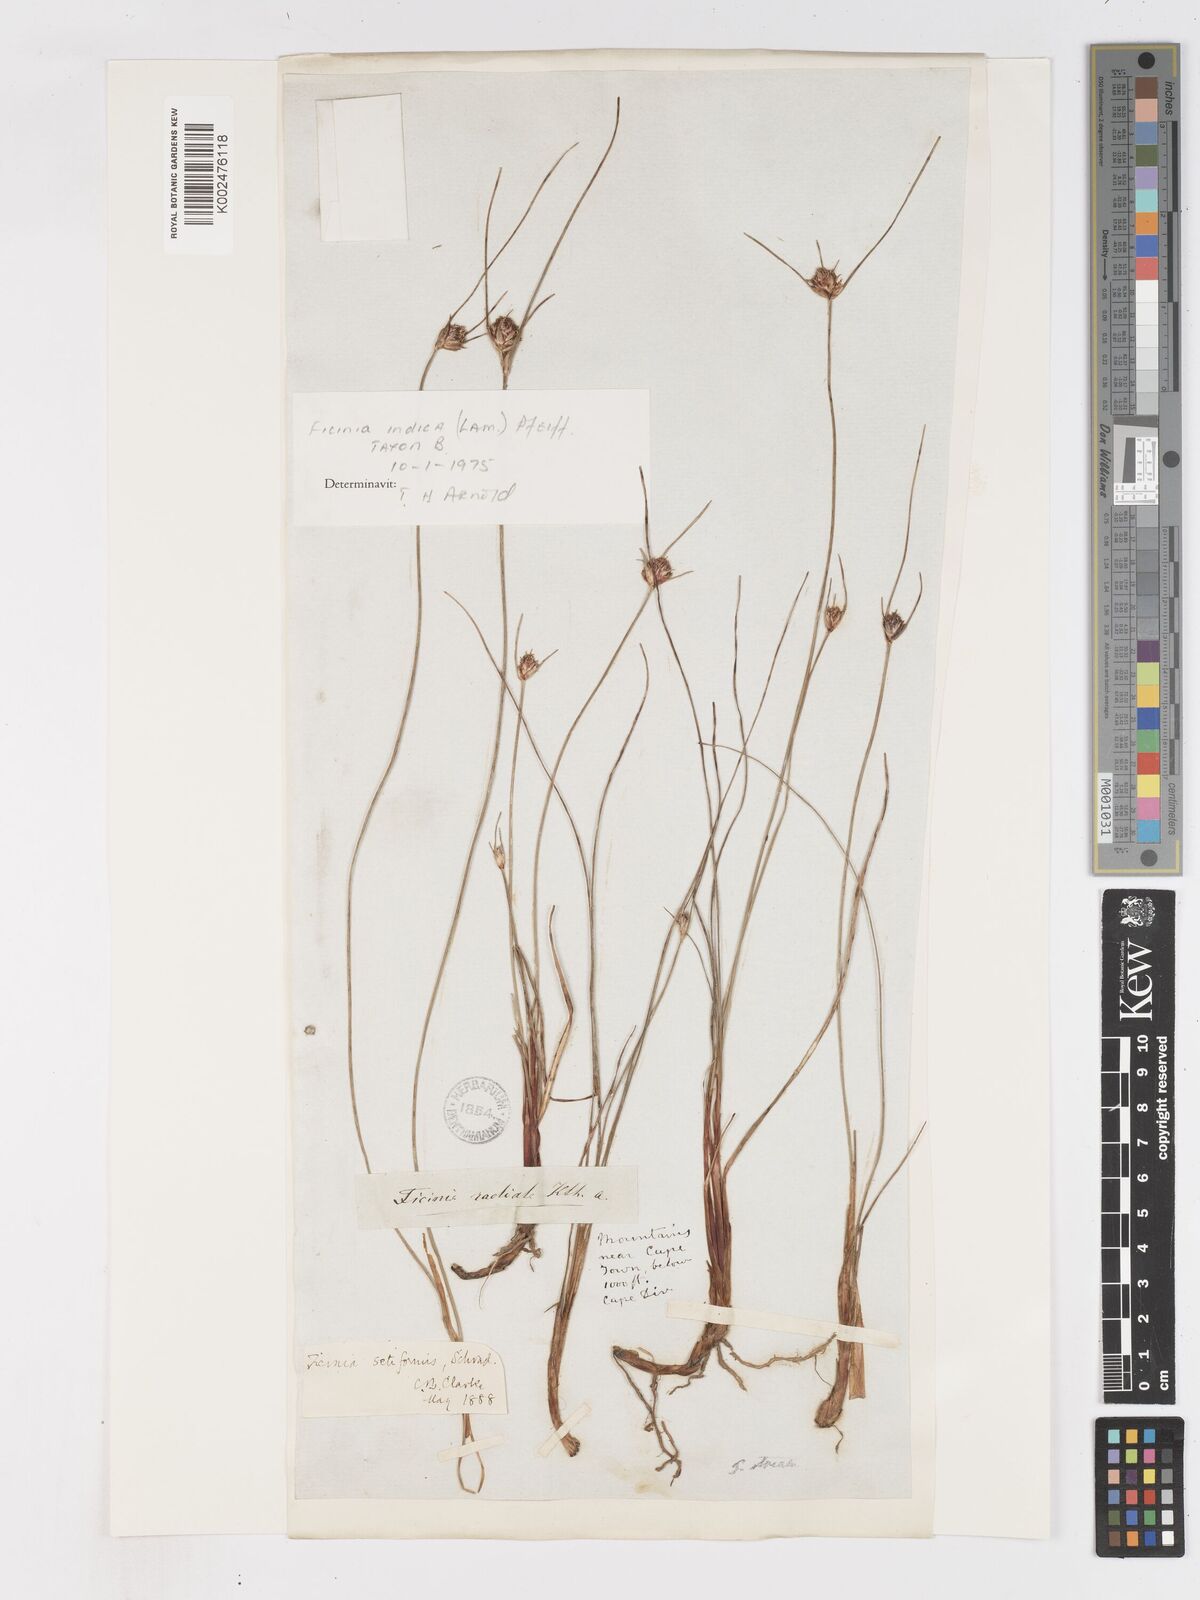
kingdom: Plantae
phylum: Tracheophyta
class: Liliopsida
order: Poales
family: Cyperaceae
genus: Ficinia
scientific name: Ficinia indica
